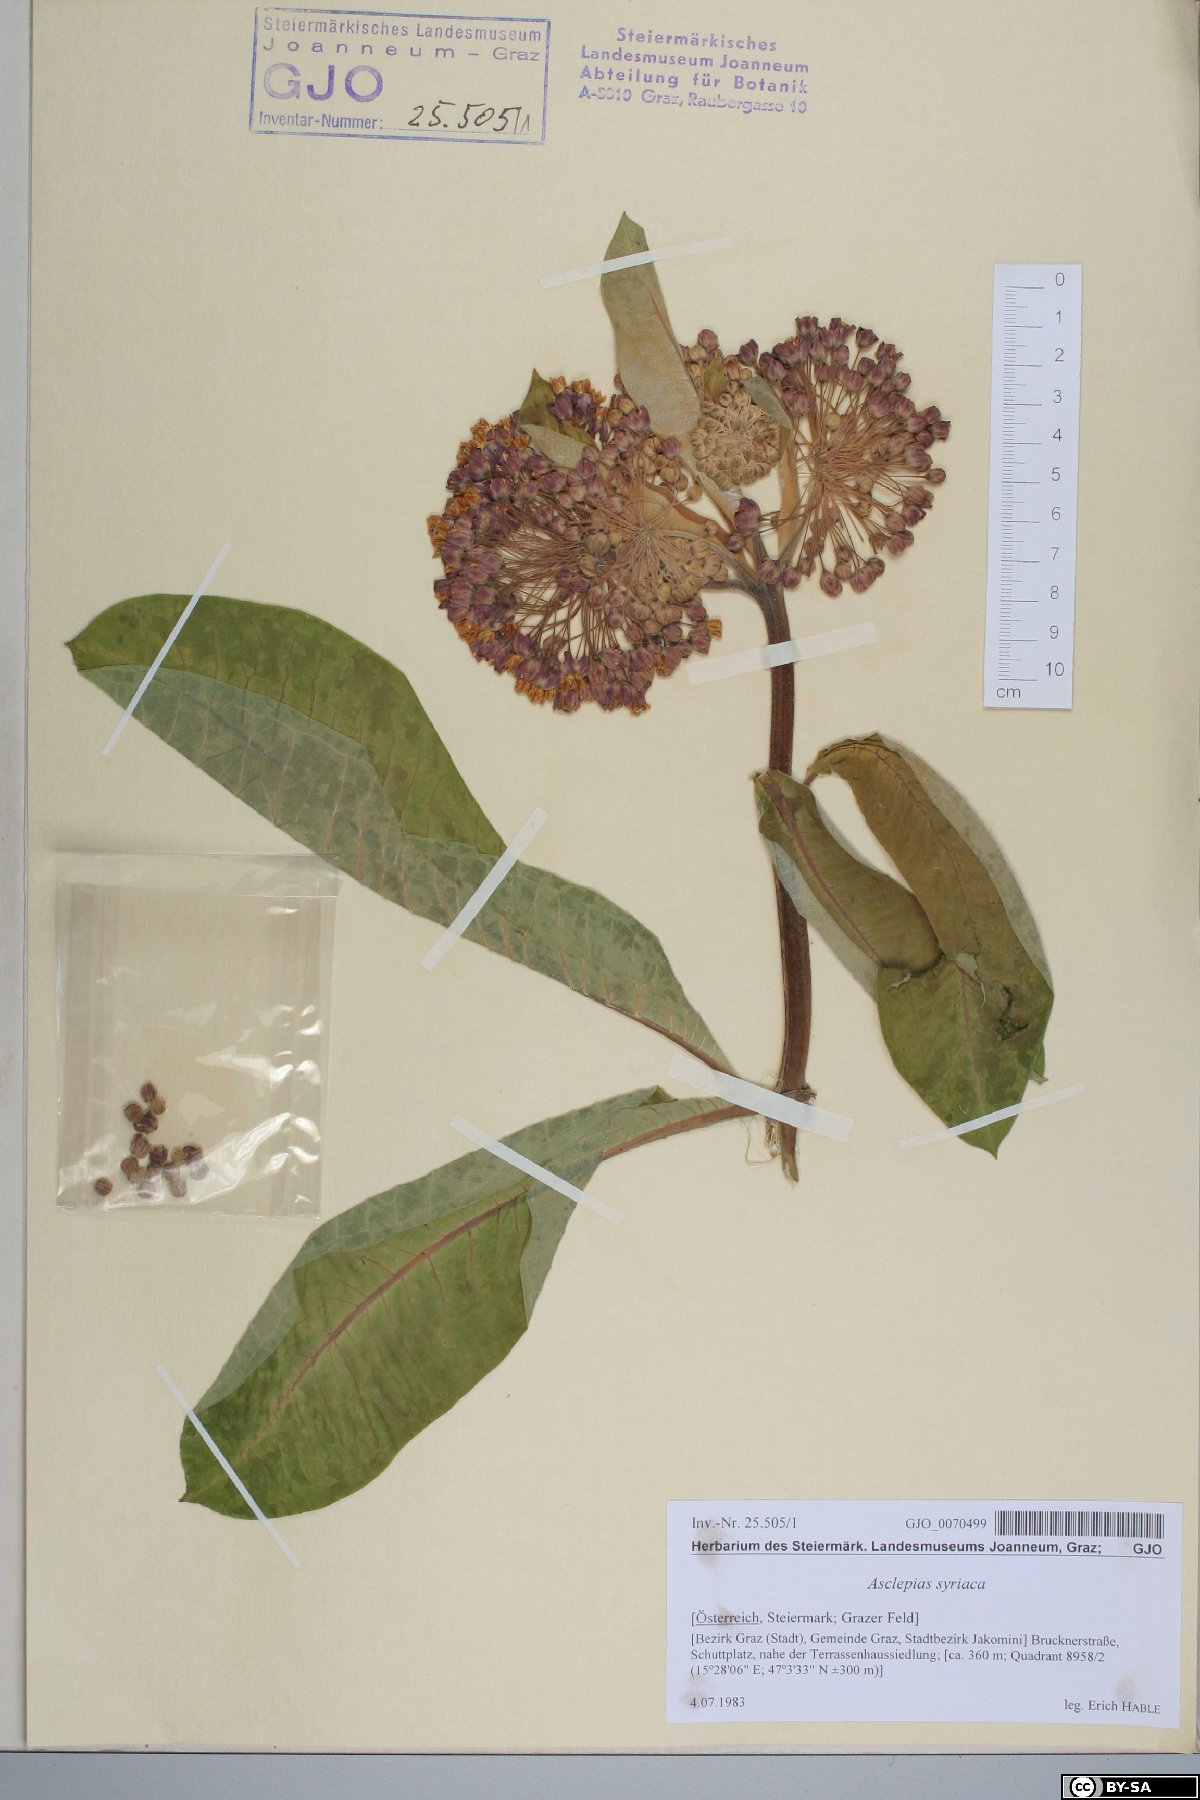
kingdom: Plantae
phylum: Tracheophyta
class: Magnoliopsida
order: Gentianales
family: Apocynaceae
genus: Asclepias
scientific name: Asclepias syriaca
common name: Common milkweed
